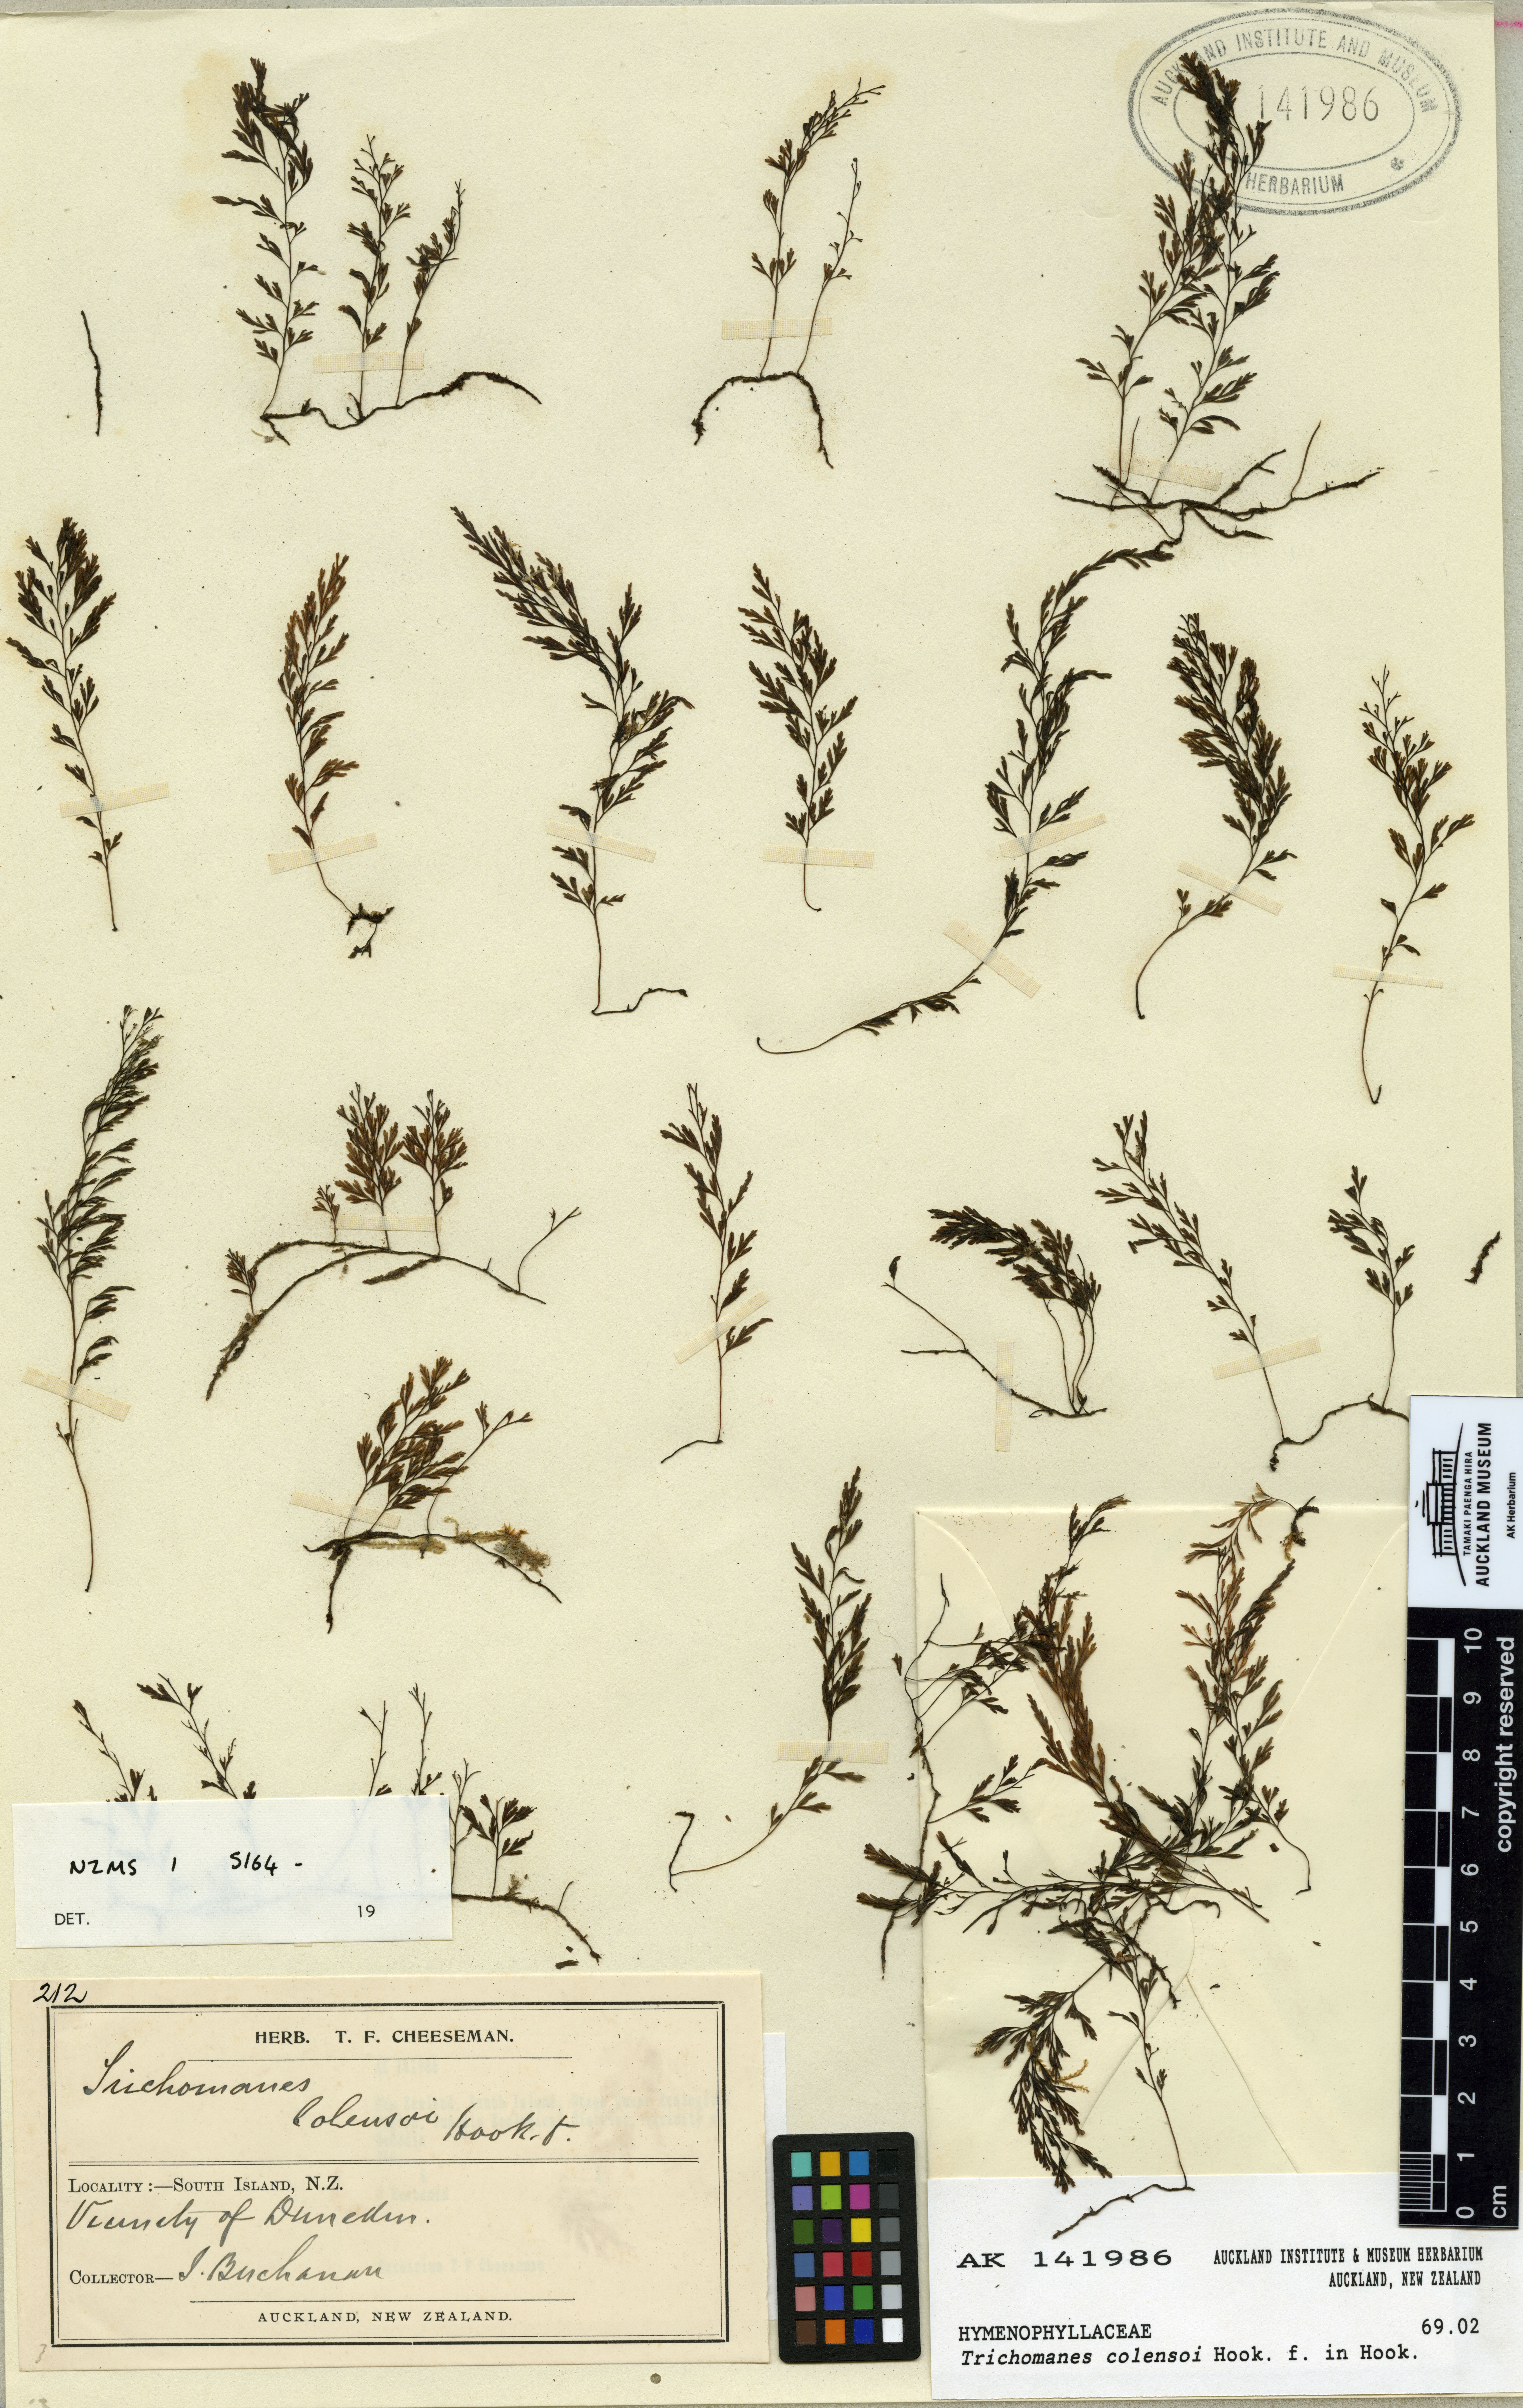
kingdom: Plantae
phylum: Tracheophyta
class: Polypodiopsida
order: Hymenophyllales
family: Hymenophyllaceae
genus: Polyphlebium
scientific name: Polyphlebium colensoi
